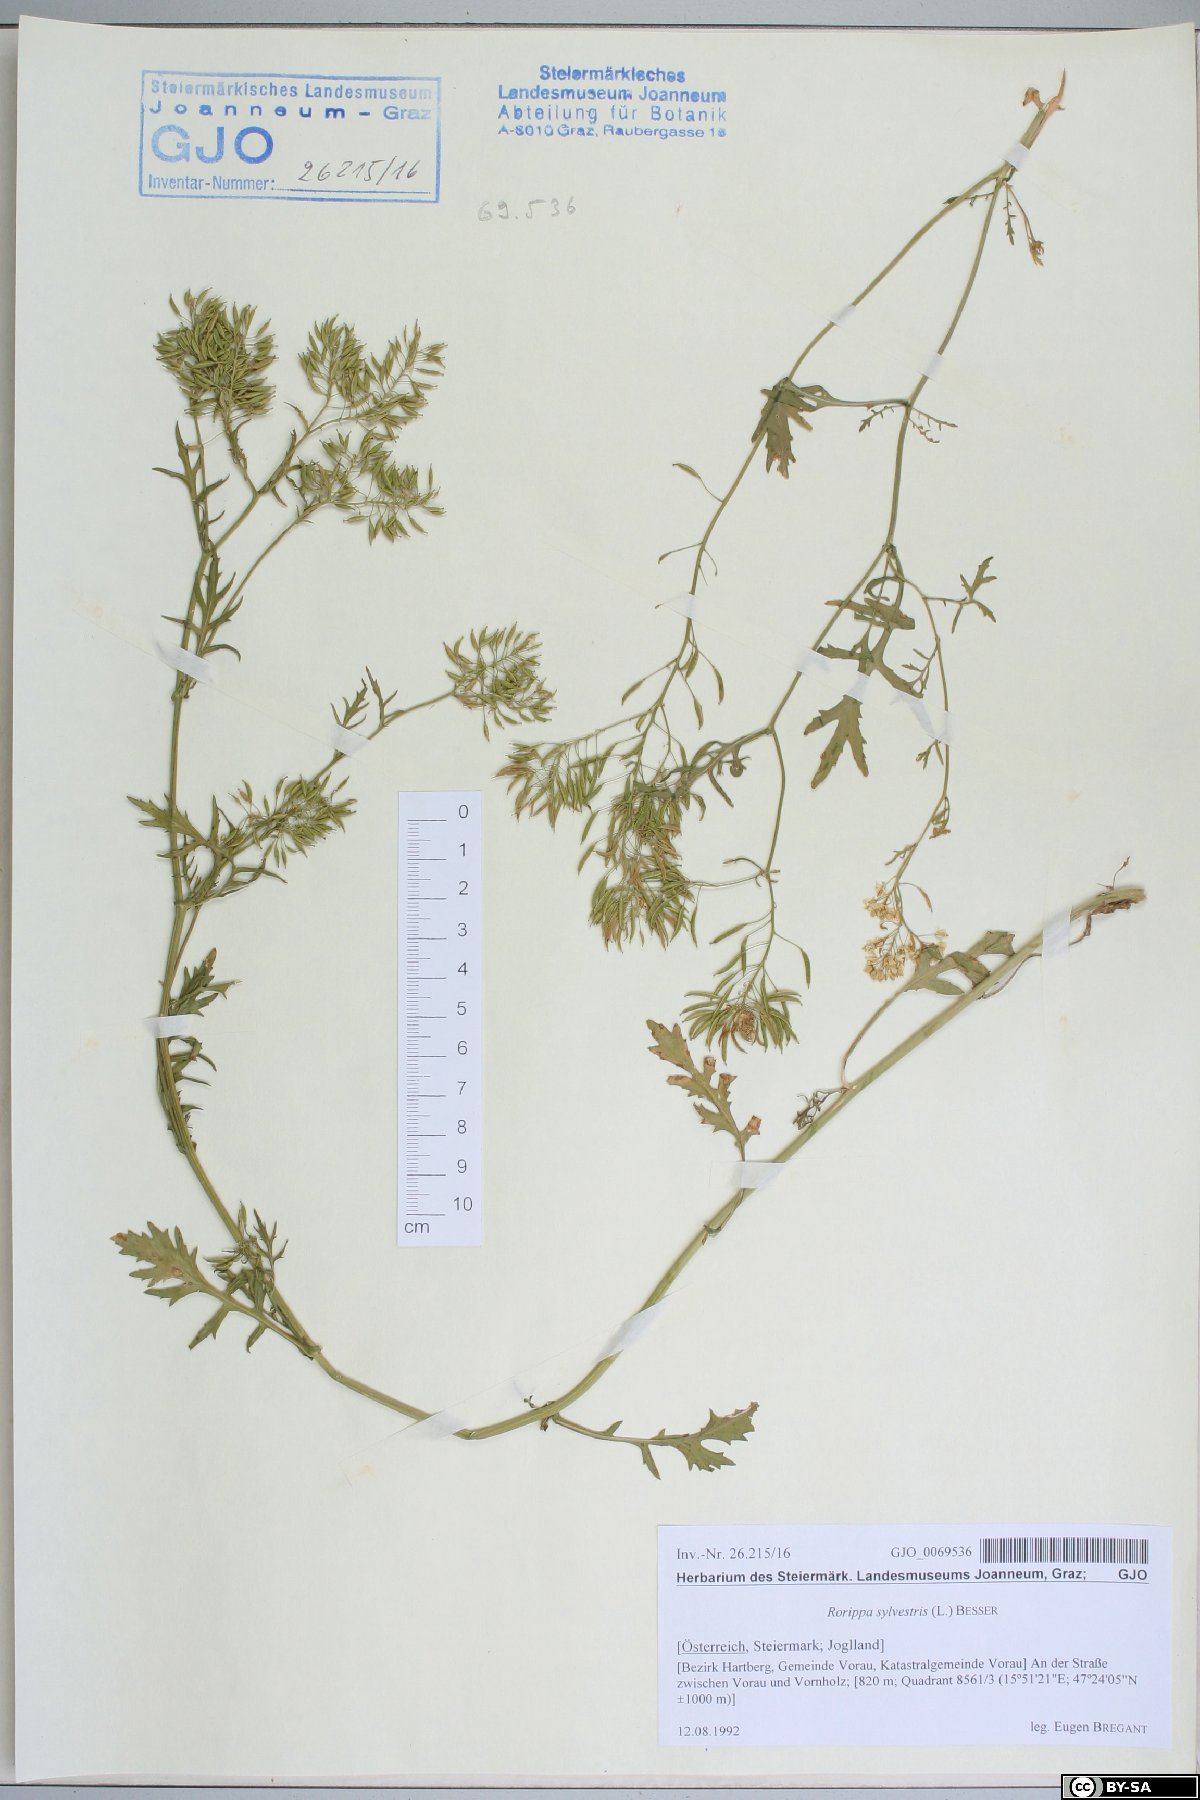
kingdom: Plantae
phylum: Tracheophyta
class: Magnoliopsida
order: Brassicales
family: Brassicaceae
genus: Rorippa
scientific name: Rorippa sylvestris
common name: Creeping yellowcress
